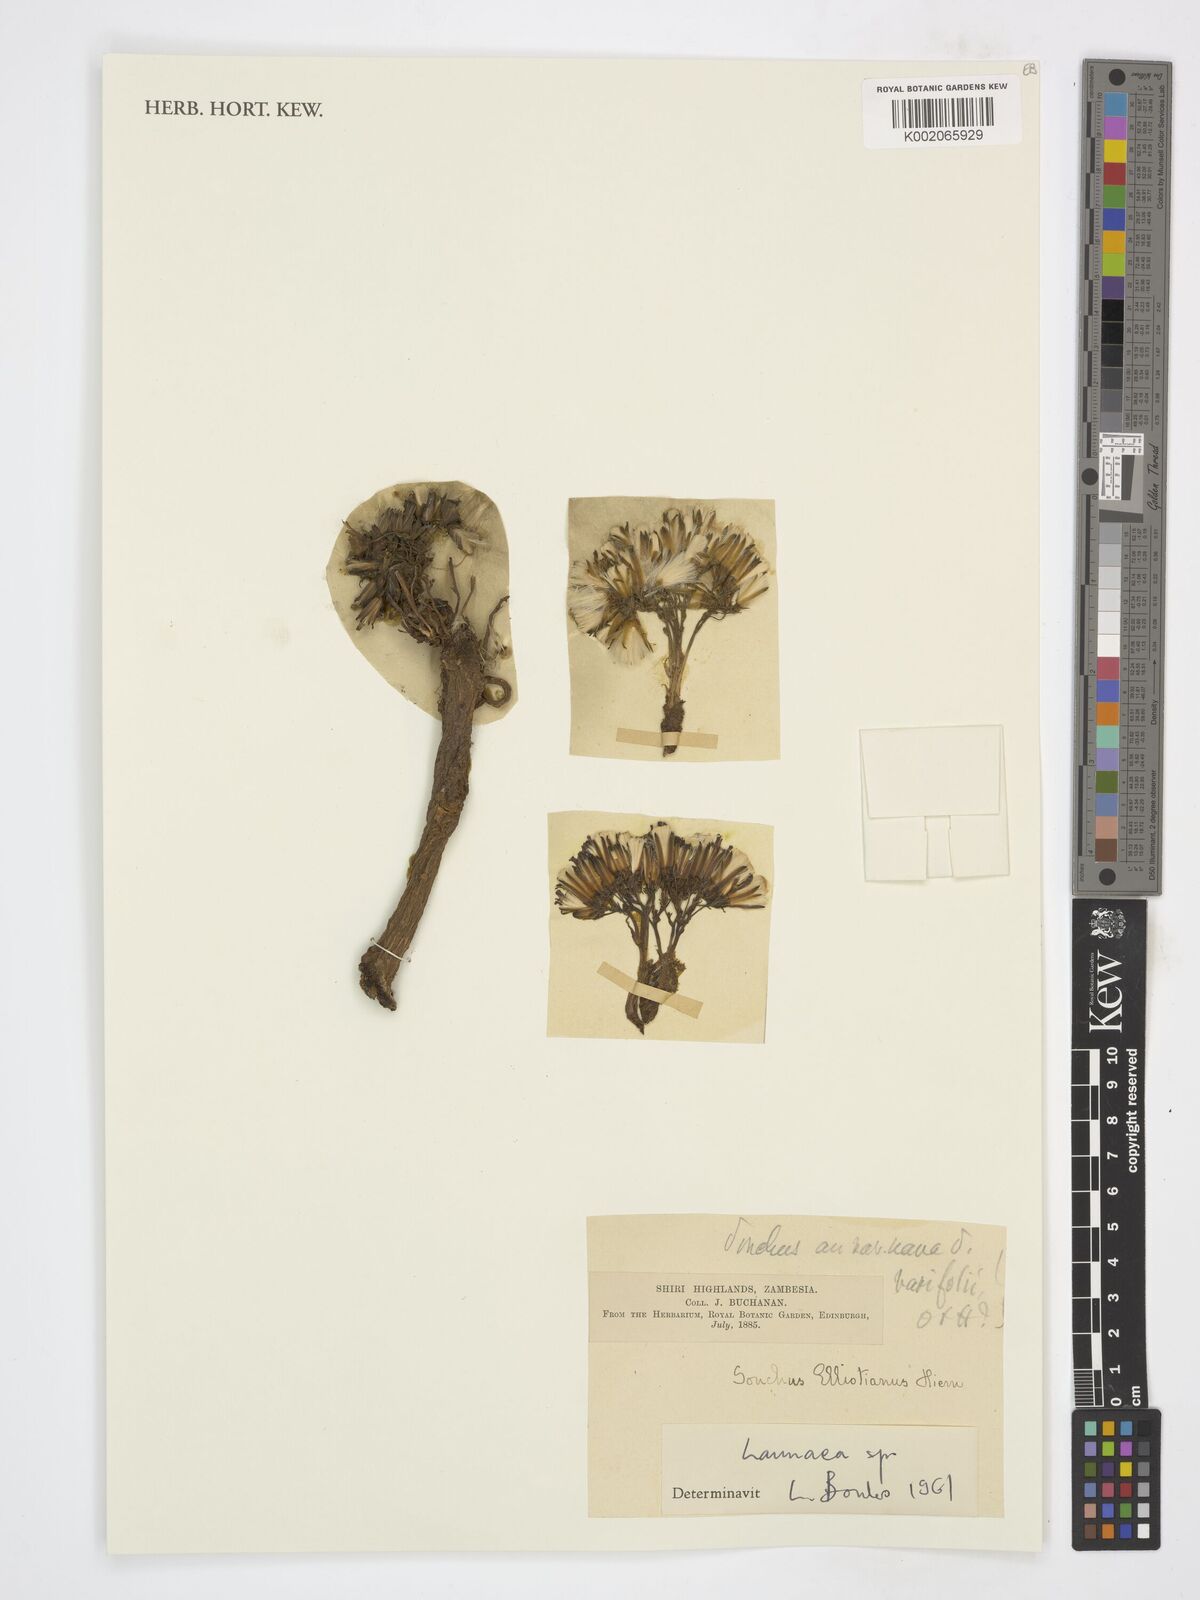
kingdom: Plantae
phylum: Tracheophyta
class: Magnoliopsida
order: Asterales
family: Asteraceae
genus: Launaea
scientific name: Launaea
